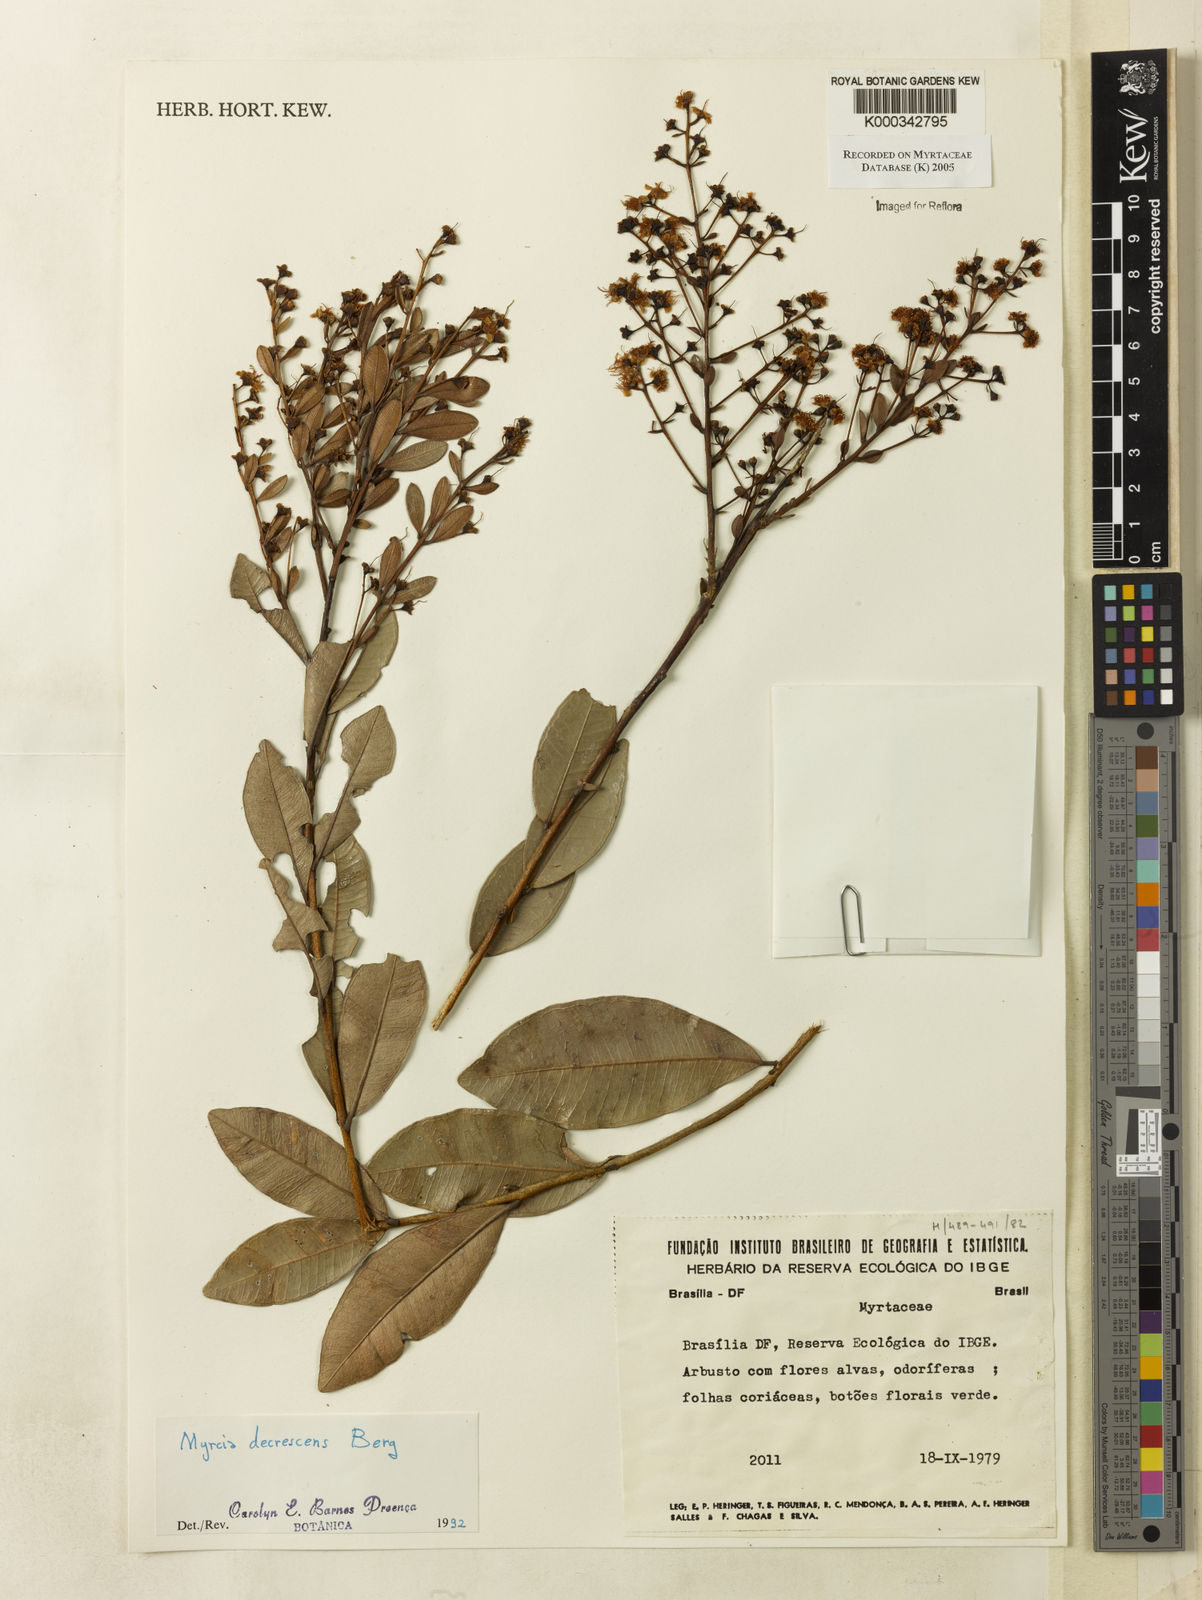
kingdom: Plantae
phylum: Tracheophyta
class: Magnoliopsida
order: Myrtales
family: Myrtaceae
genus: Myrcia
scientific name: Myrcia
